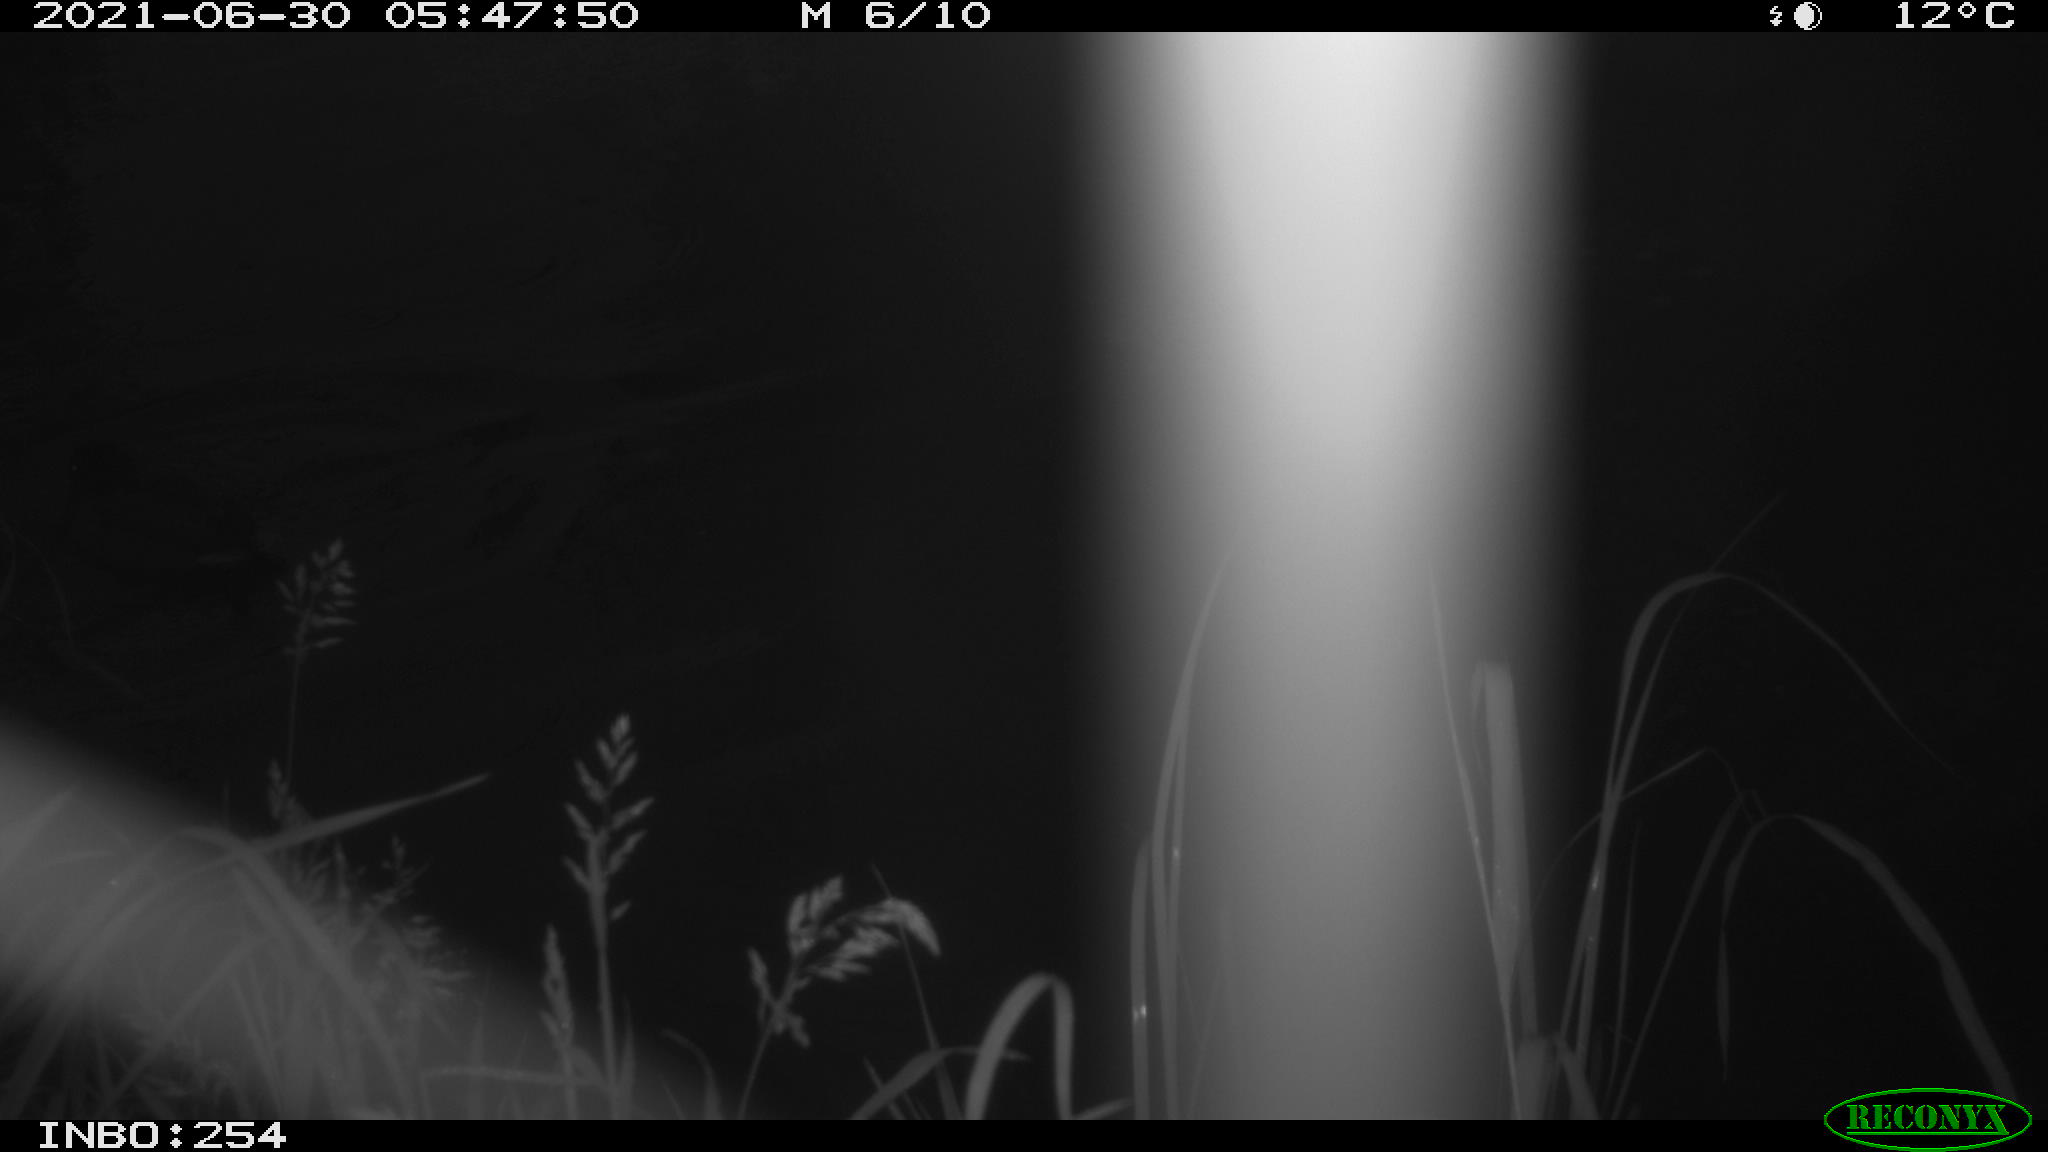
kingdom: Animalia
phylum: Chordata
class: Aves
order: Anseriformes
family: Anatidae
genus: Anas
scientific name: Anas platyrhynchos
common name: Mallard
